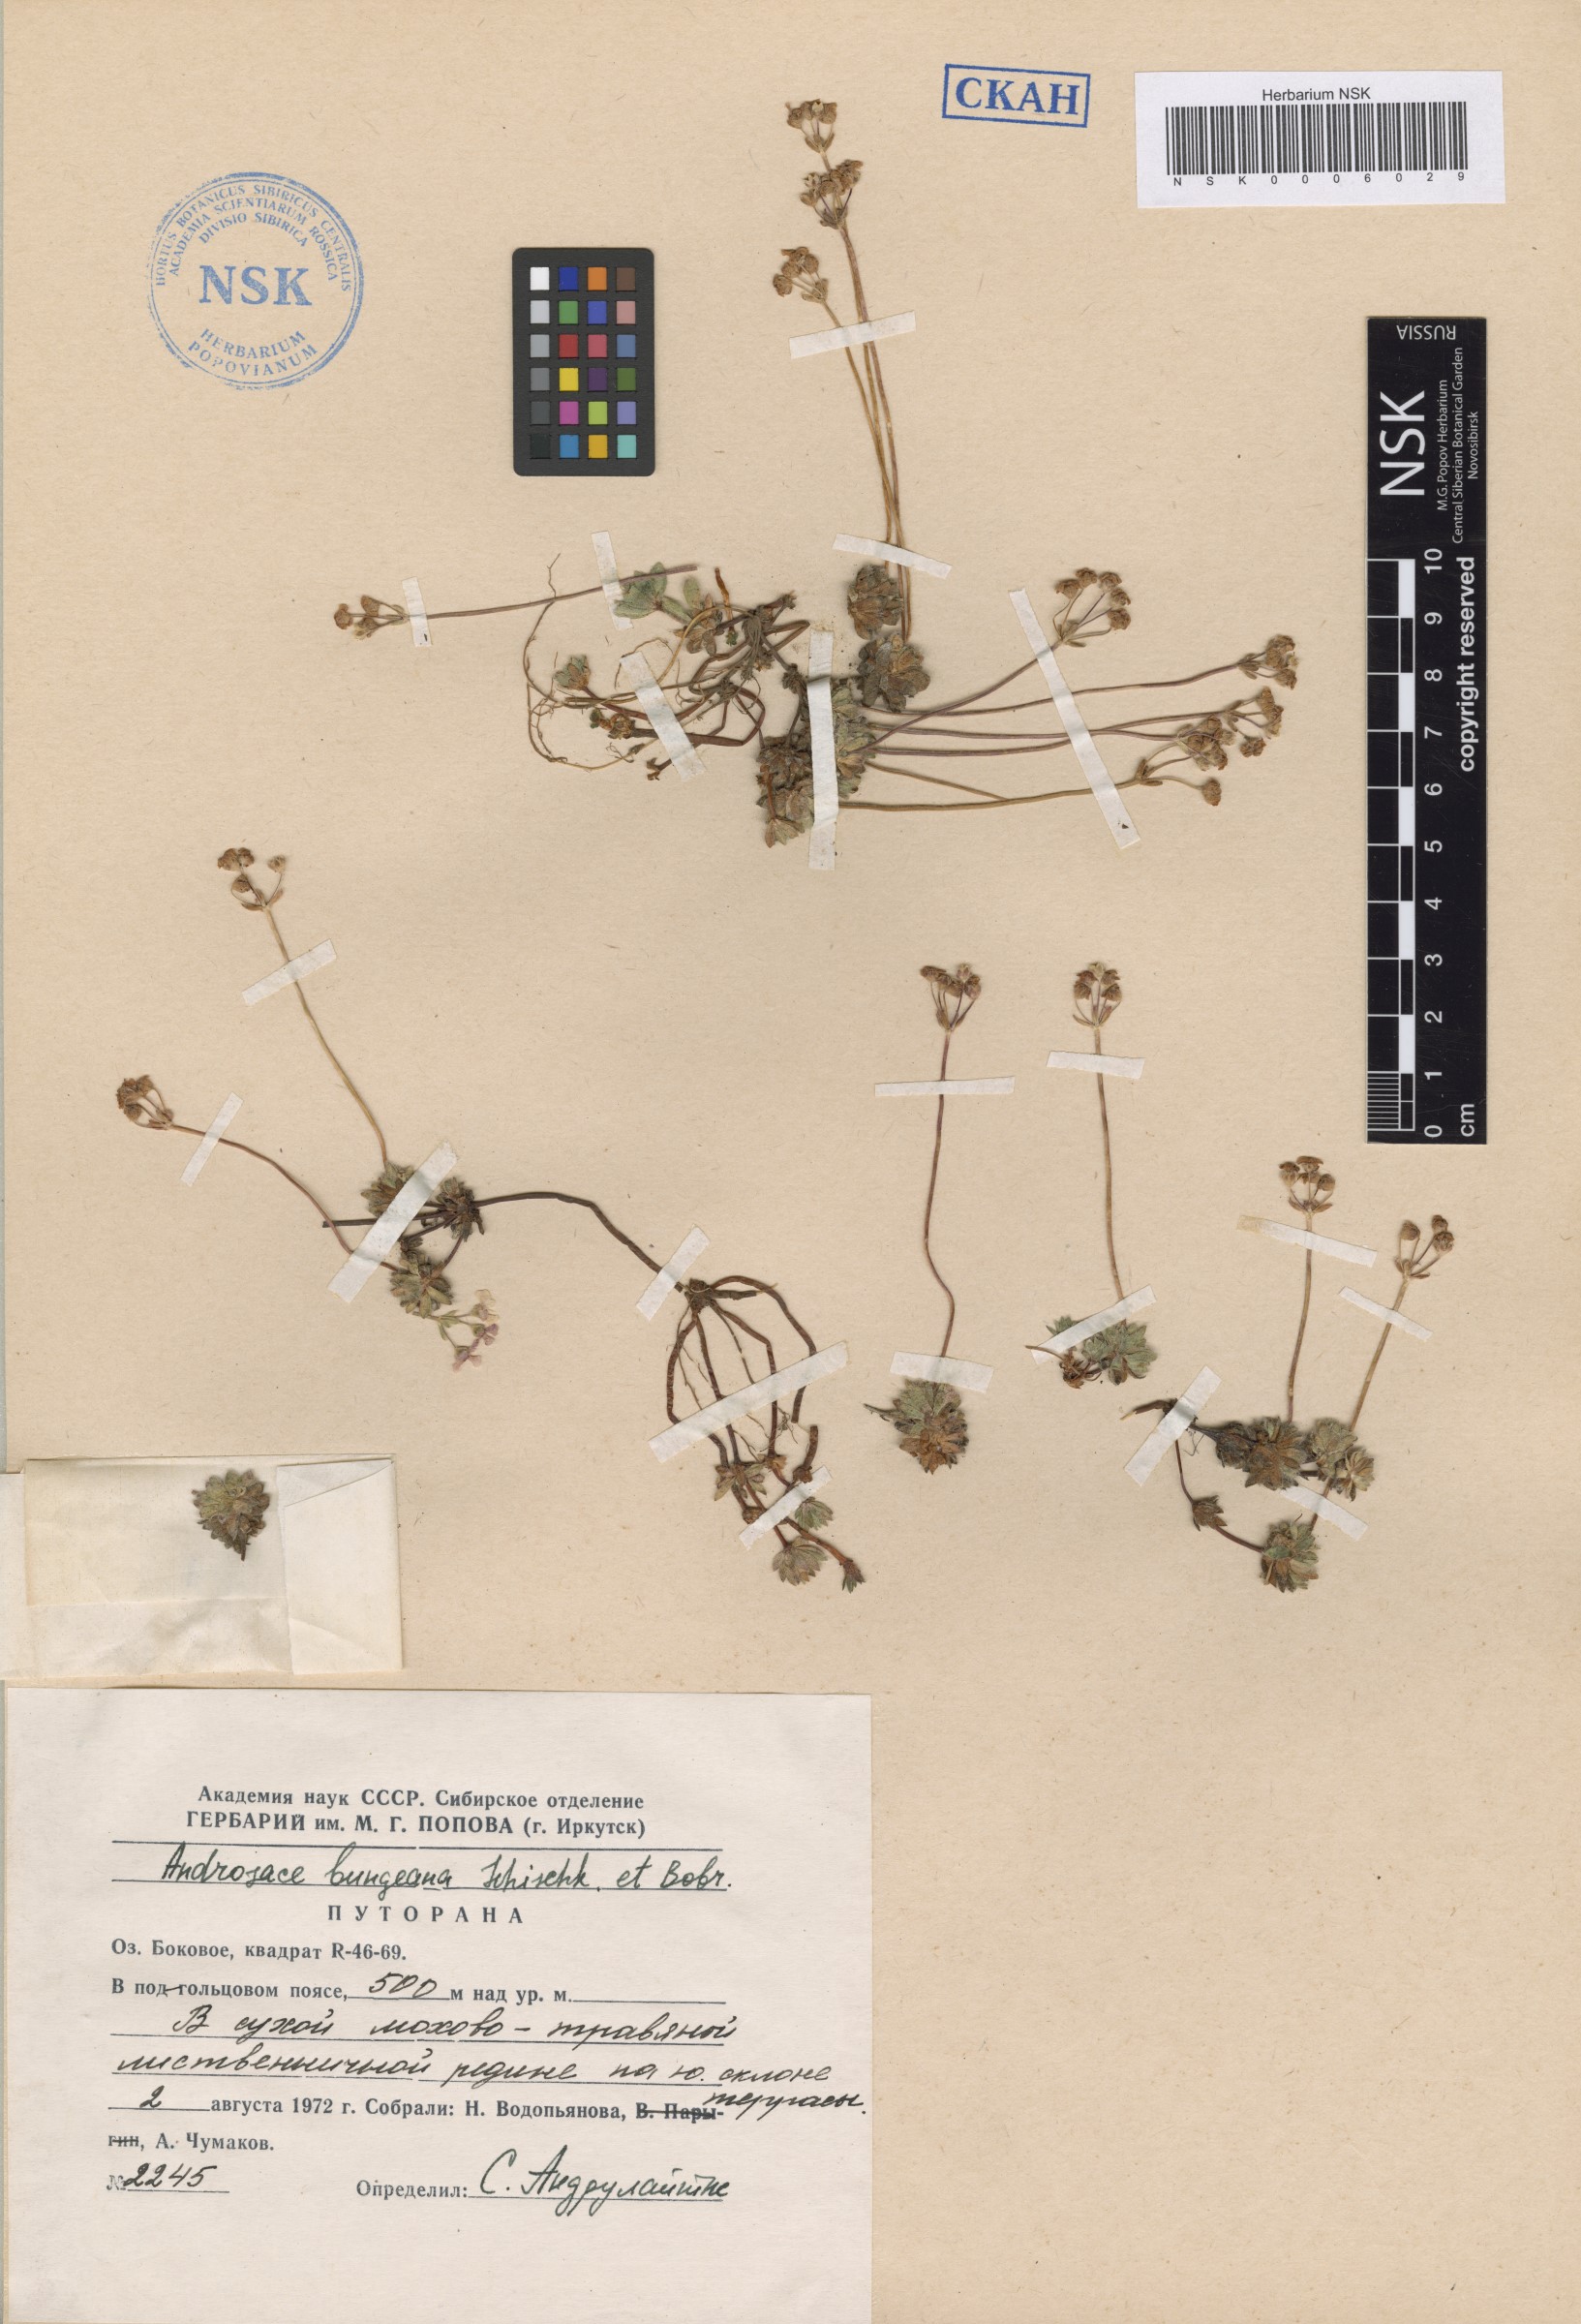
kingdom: Plantae
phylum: Tracheophyta
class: Magnoliopsida
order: Ericales
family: Primulaceae
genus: Androsace
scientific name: Androsace bungeana
